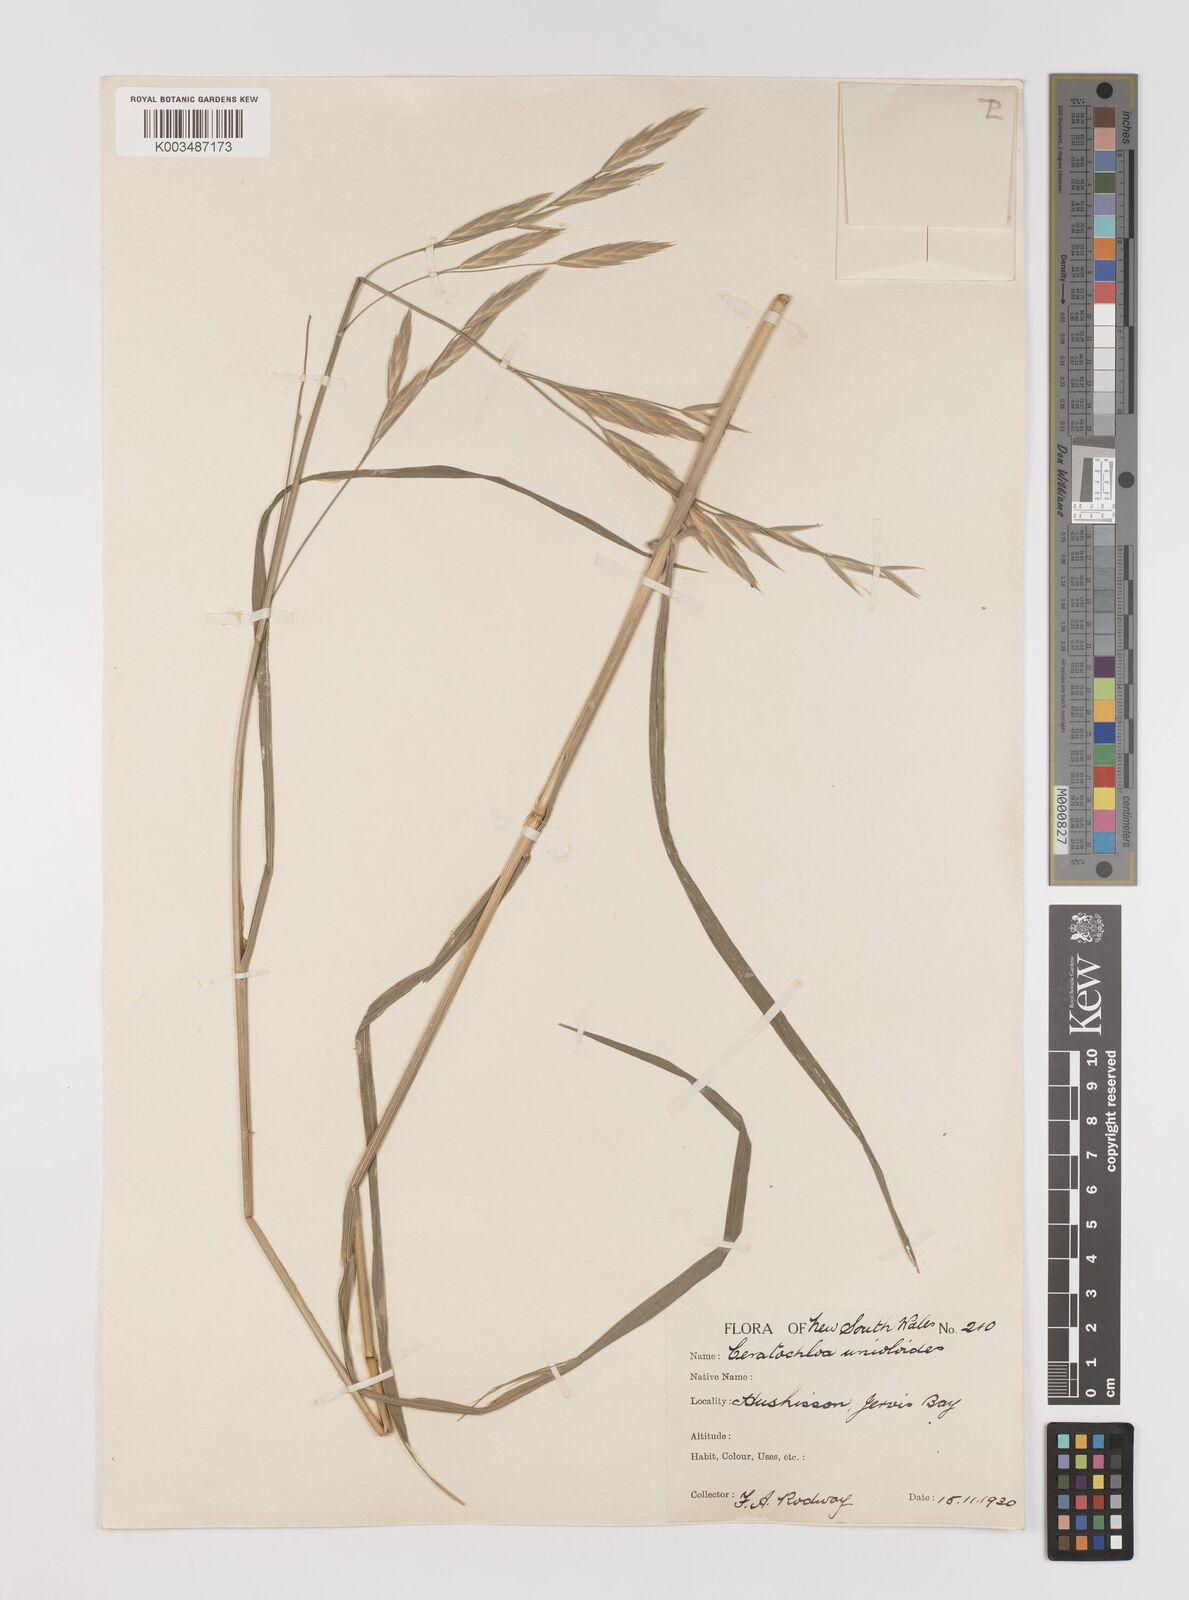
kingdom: Plantae
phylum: Tracheophyta
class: Liliopsida
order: Poales
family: Poaceae
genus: Bromus
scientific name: Bromus catharticus
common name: Rescuegrass
